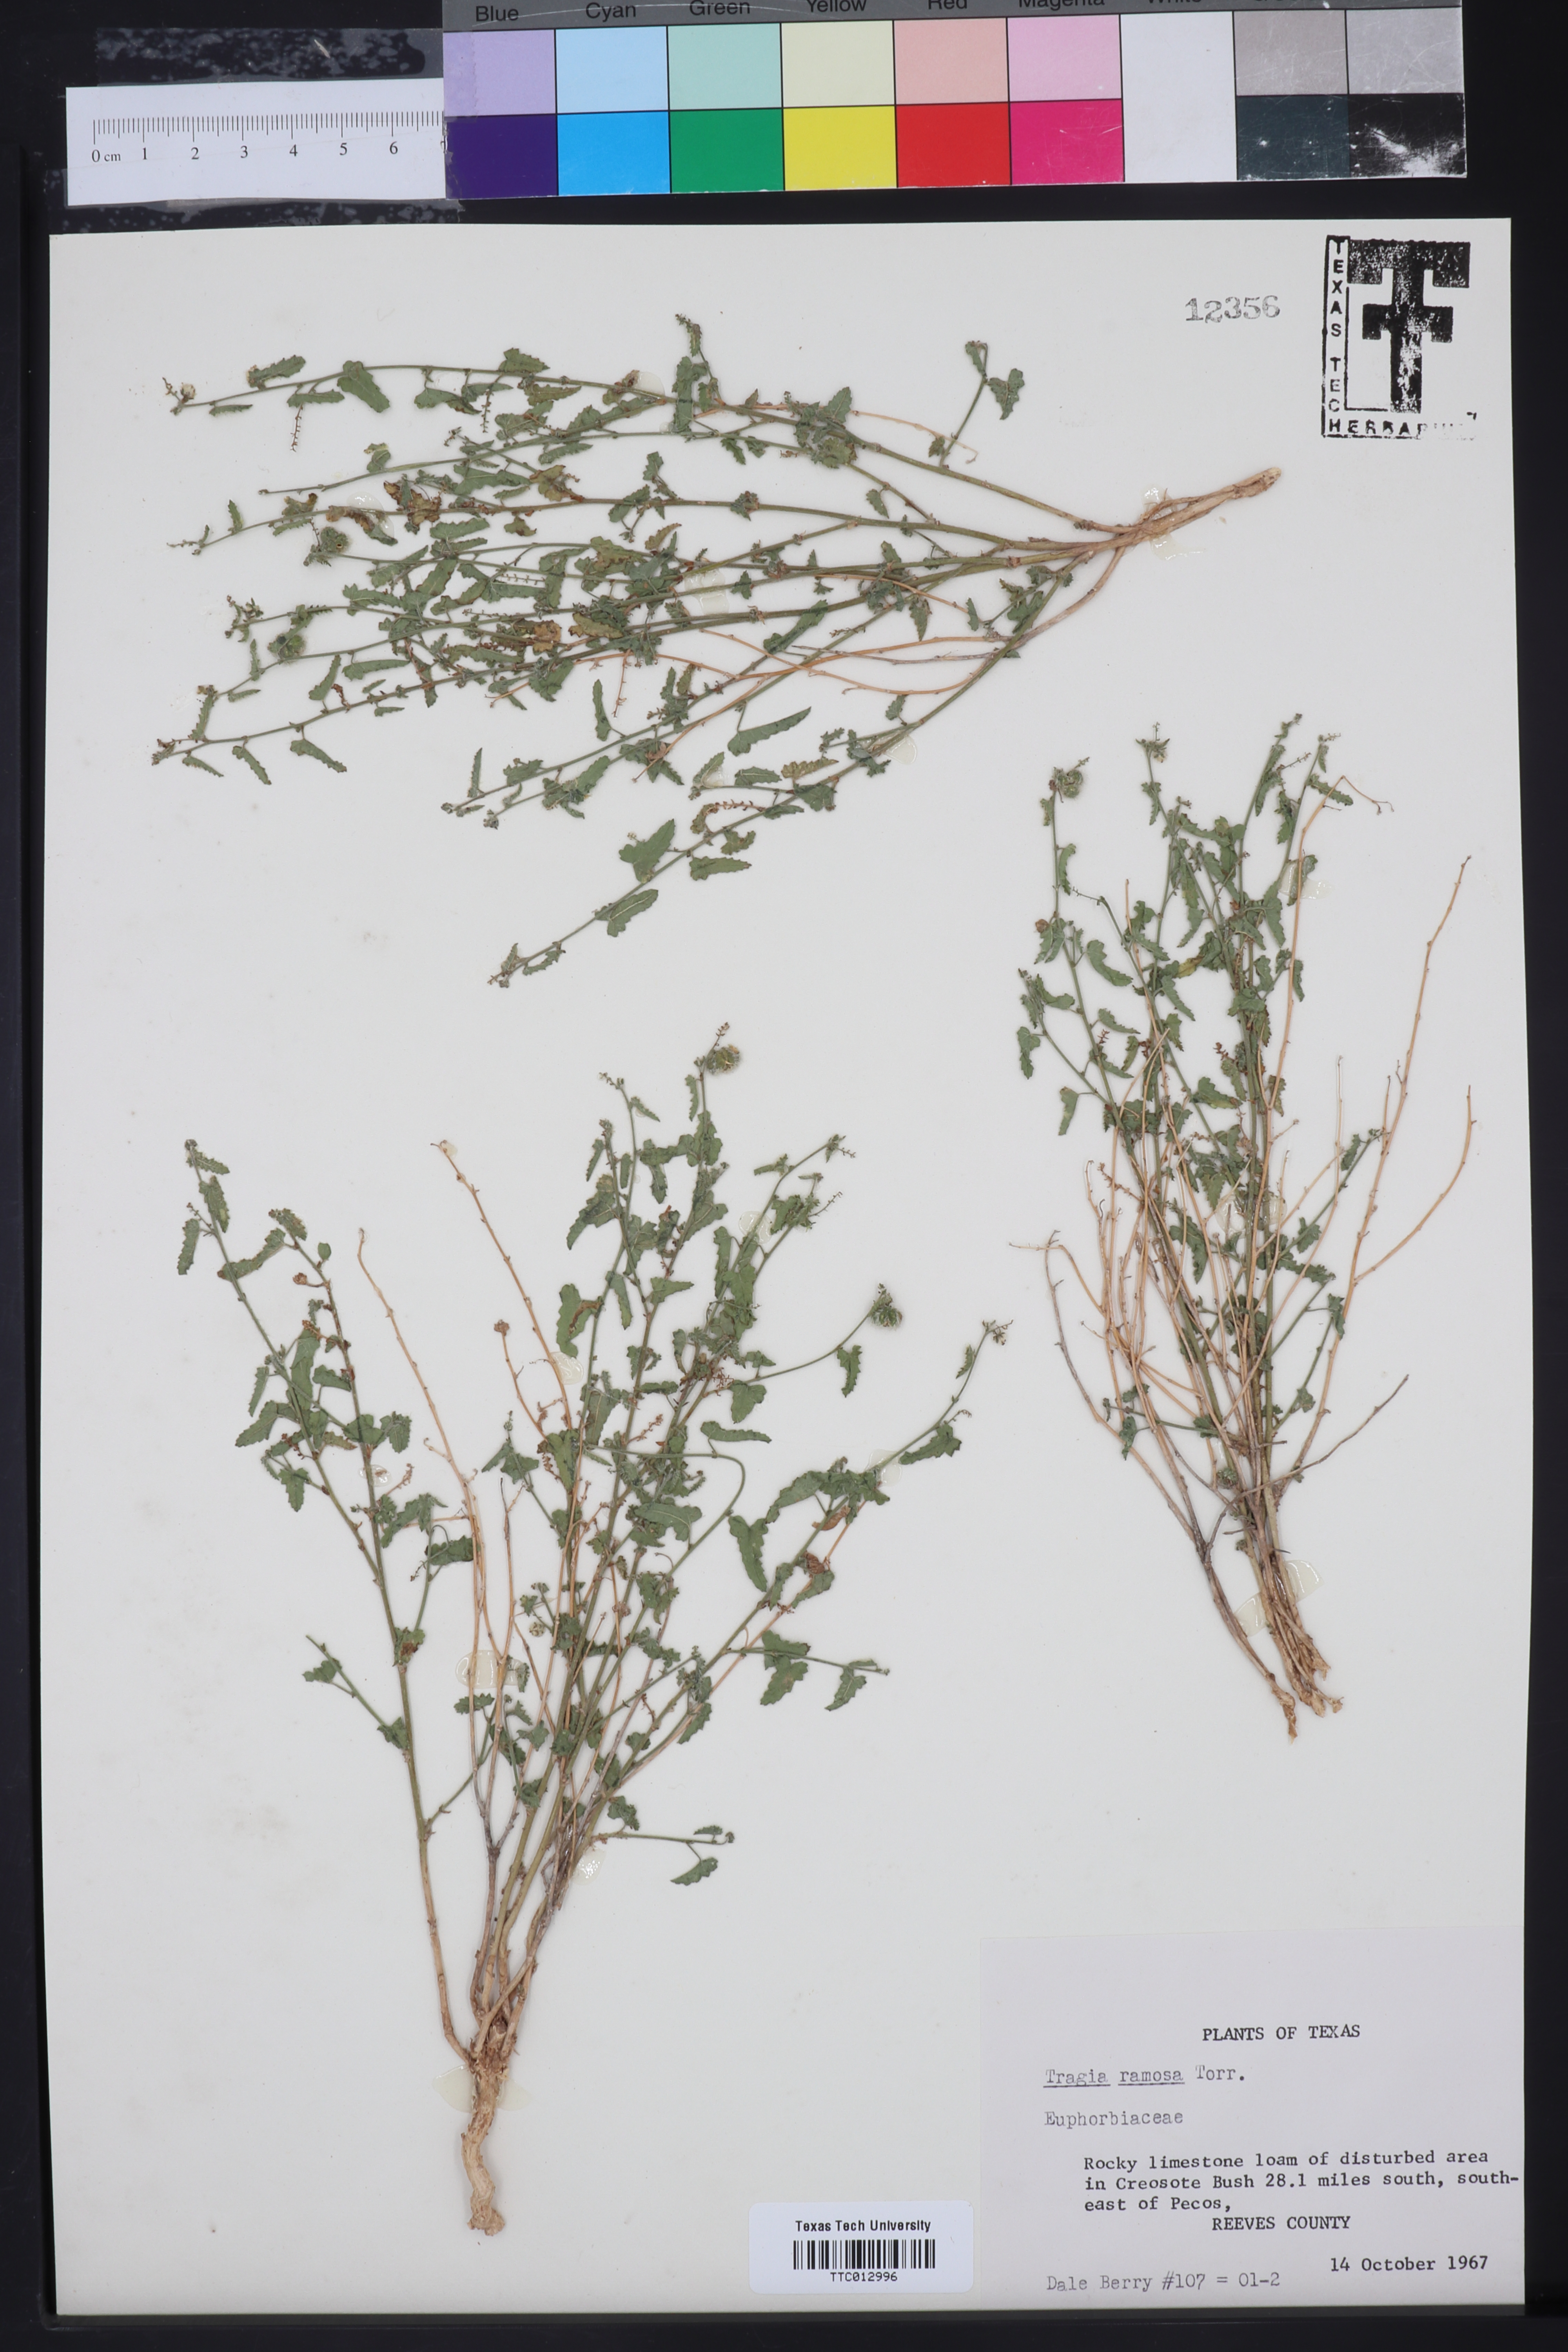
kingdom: Plantae
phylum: Tracheophyta
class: Magnoliopsida
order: Malpighiales
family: Euphorbiaceae
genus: Tragia
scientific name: Tragia ramosa
